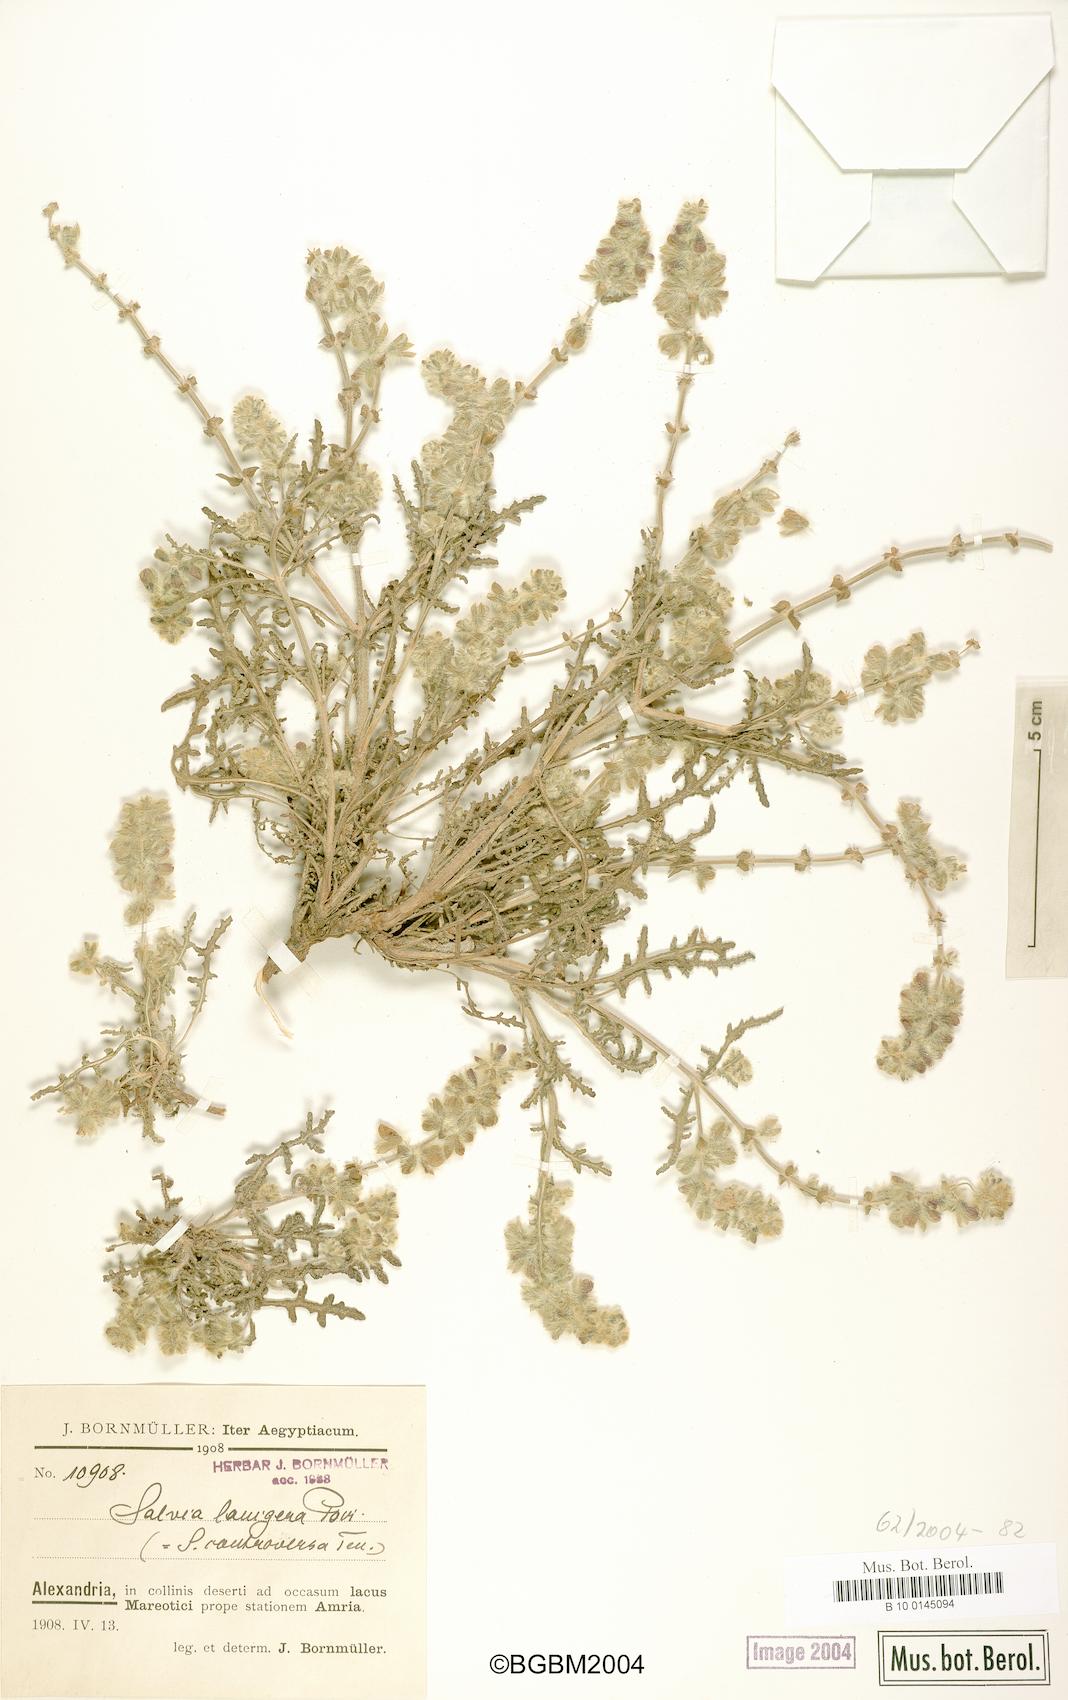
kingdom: Plantae
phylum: Tracheophyta
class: Magnoliopsida
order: Lamiales
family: Lamiaceae
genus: Salvia
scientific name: Salvia lanigera
